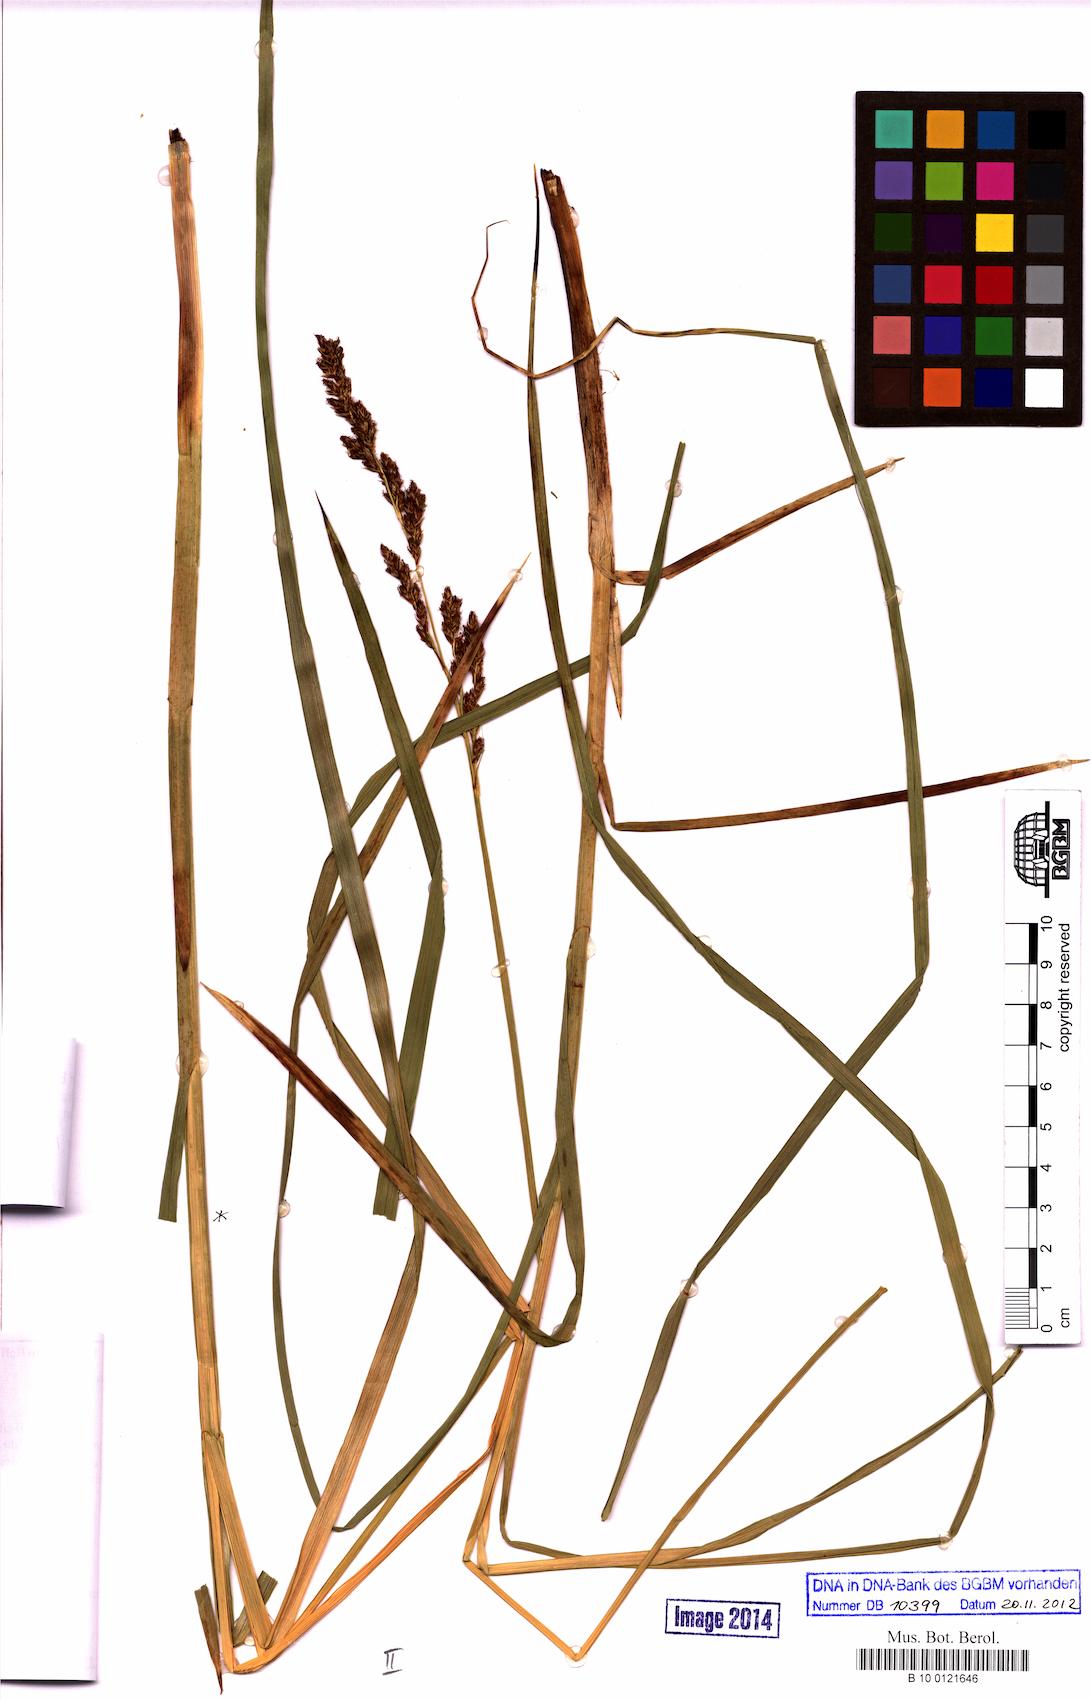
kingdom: Plantae
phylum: Tracheophyta
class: Liliopsida
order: Poales
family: Cyperaceae
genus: Carex
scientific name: Carex paniculata
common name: Greater tussock-sedge
